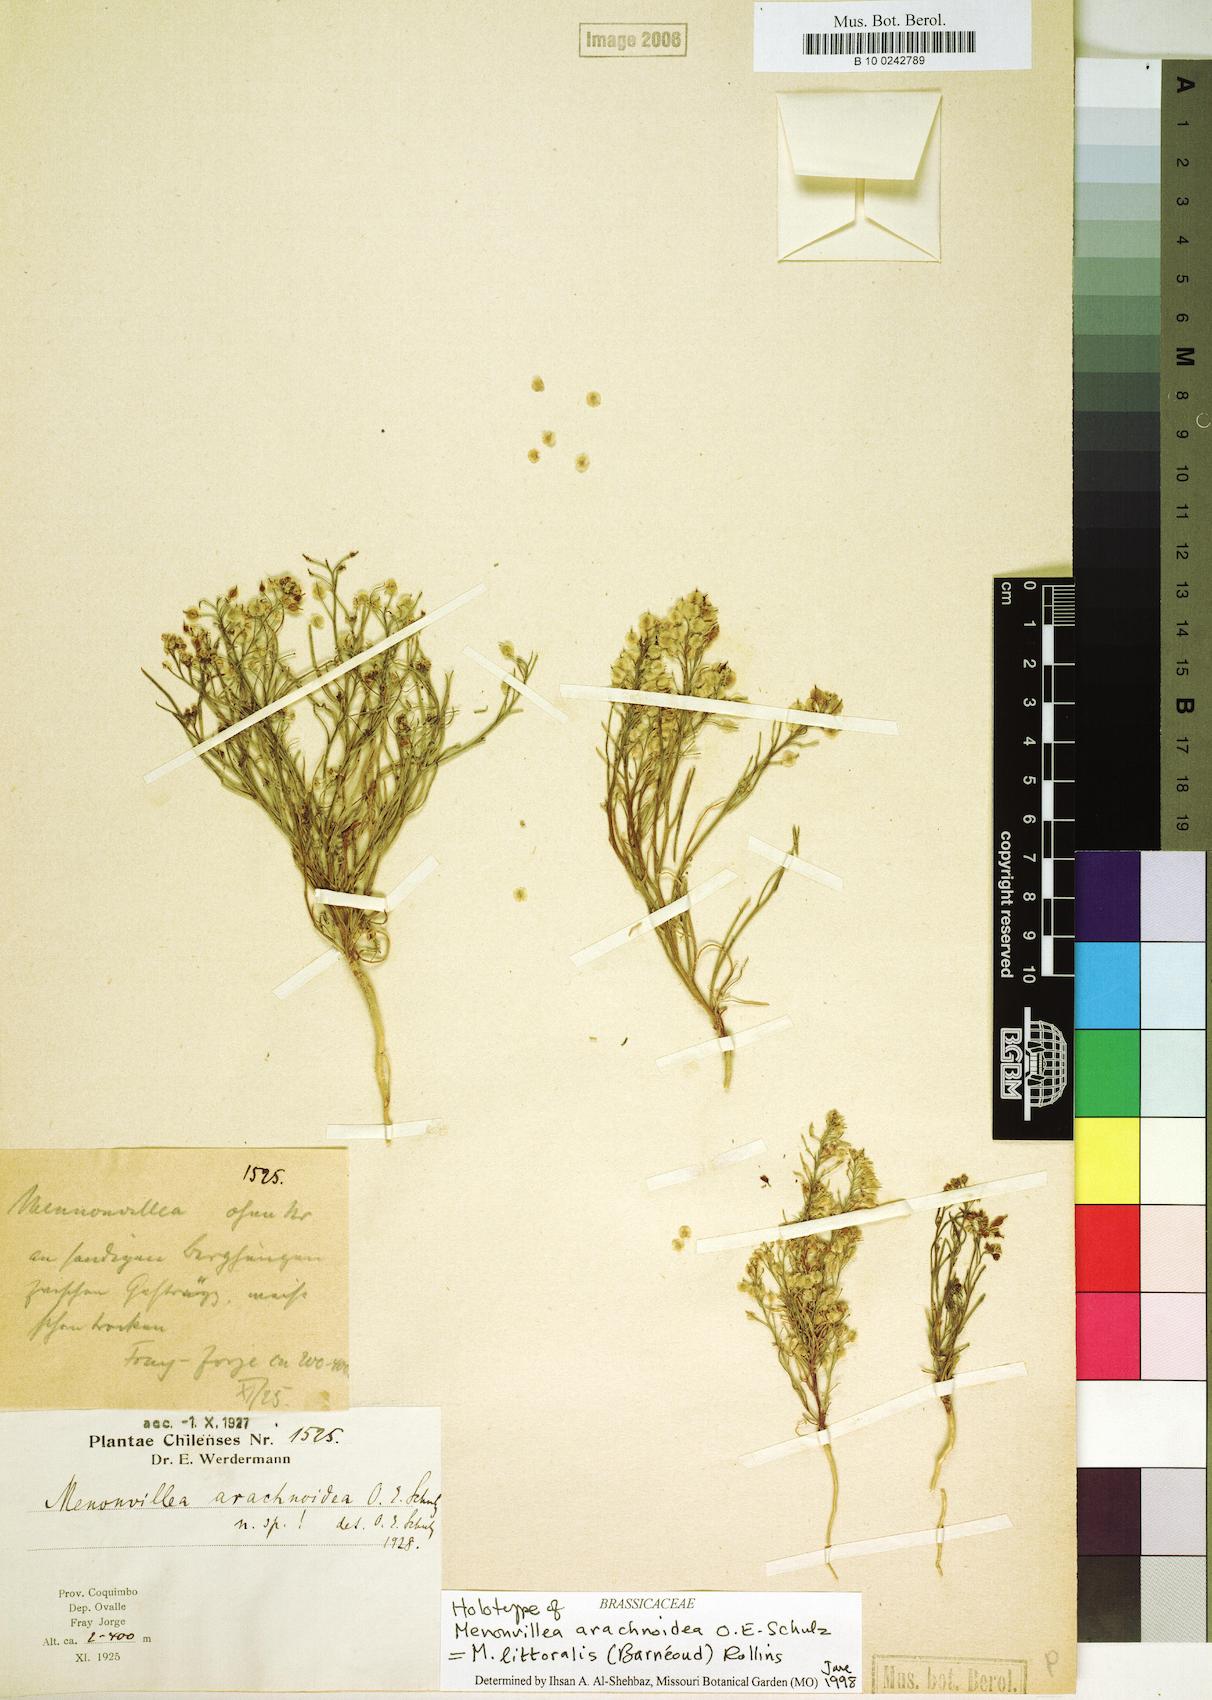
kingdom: Plantae
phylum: Tracheophyta
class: Magnoliopsida
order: Brassicales
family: Brassicaceae
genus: Menonvillea
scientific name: Menonvillea litoralis
